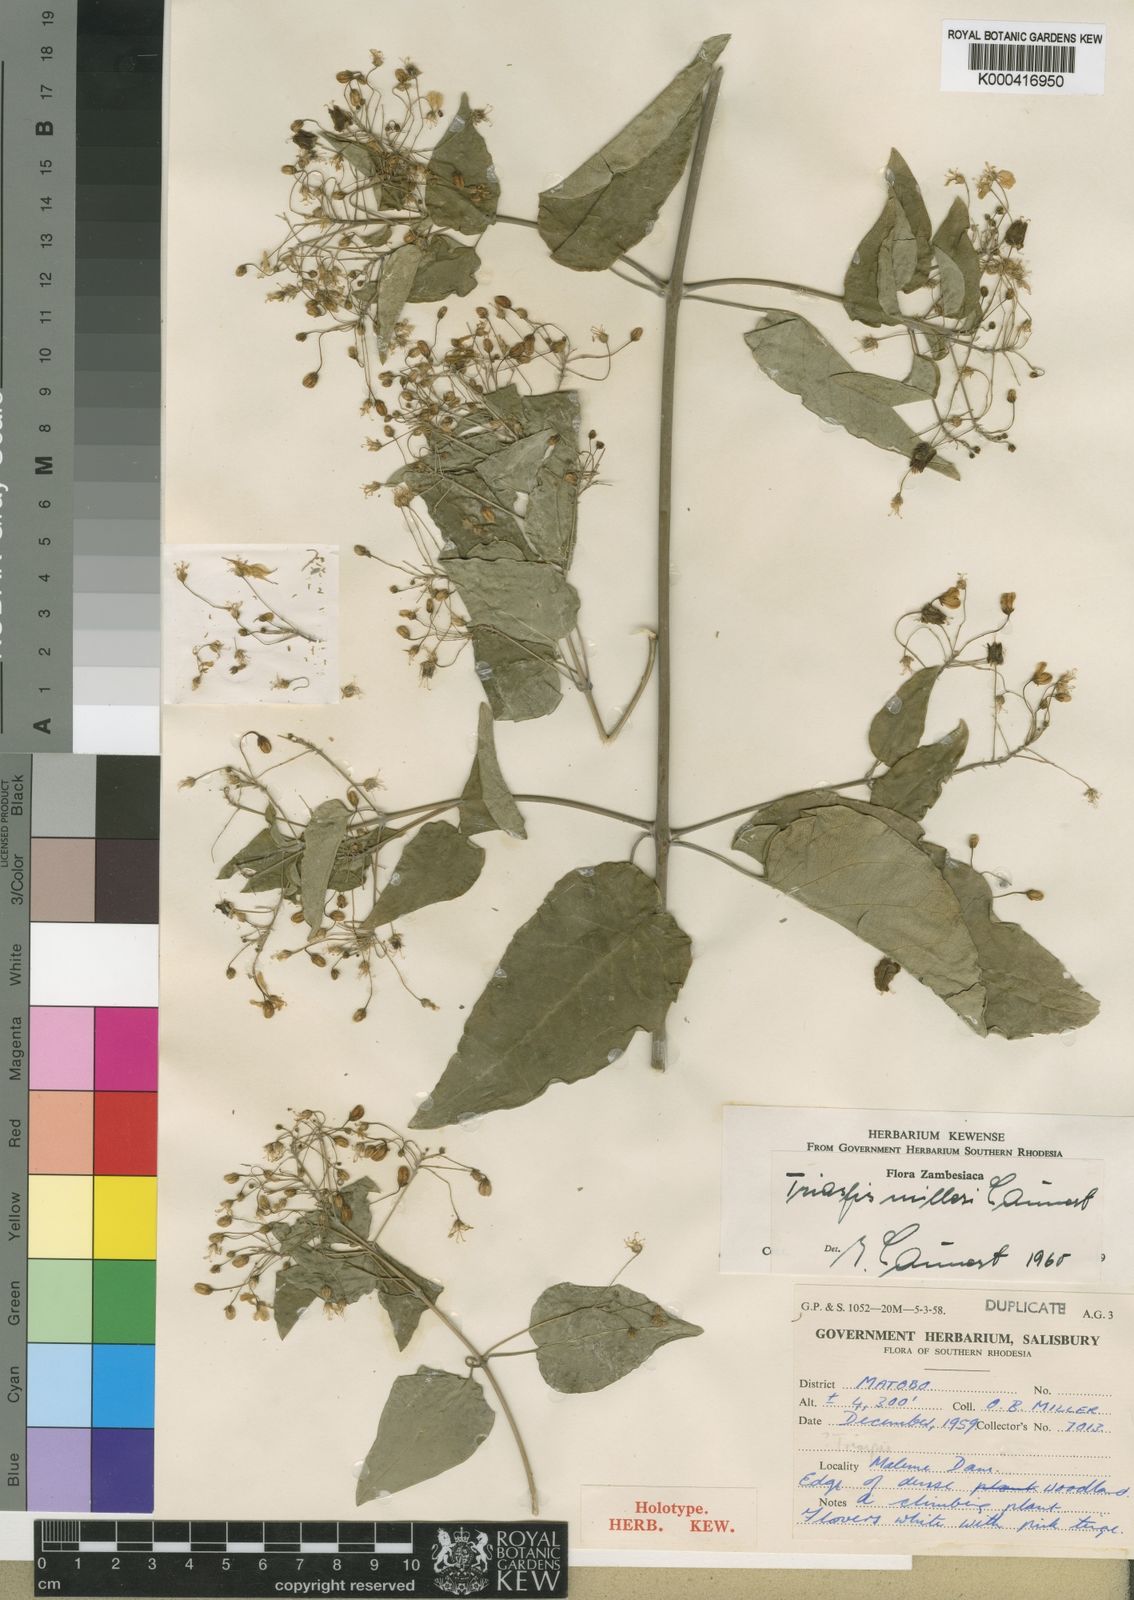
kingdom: Plantae
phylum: Tracheophyta
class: Magnoliopsida
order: Malpighiales
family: Malpighiaceae
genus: Triaspis
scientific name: Triaspis
